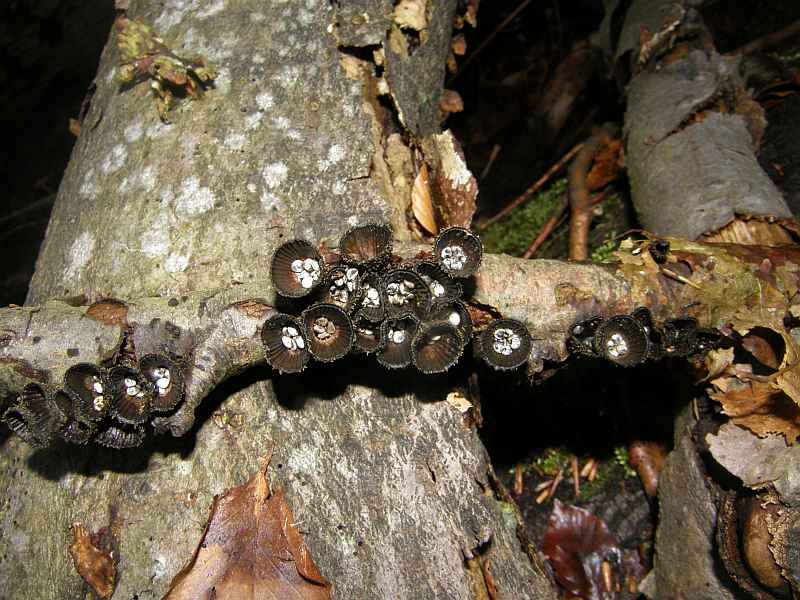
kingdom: Fungi
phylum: Basidiomycota
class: Agaricomycetes
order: Agaricales
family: Agaricaceae
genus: Cyathus
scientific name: Cyathus striatus
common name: stribet redesvamp
